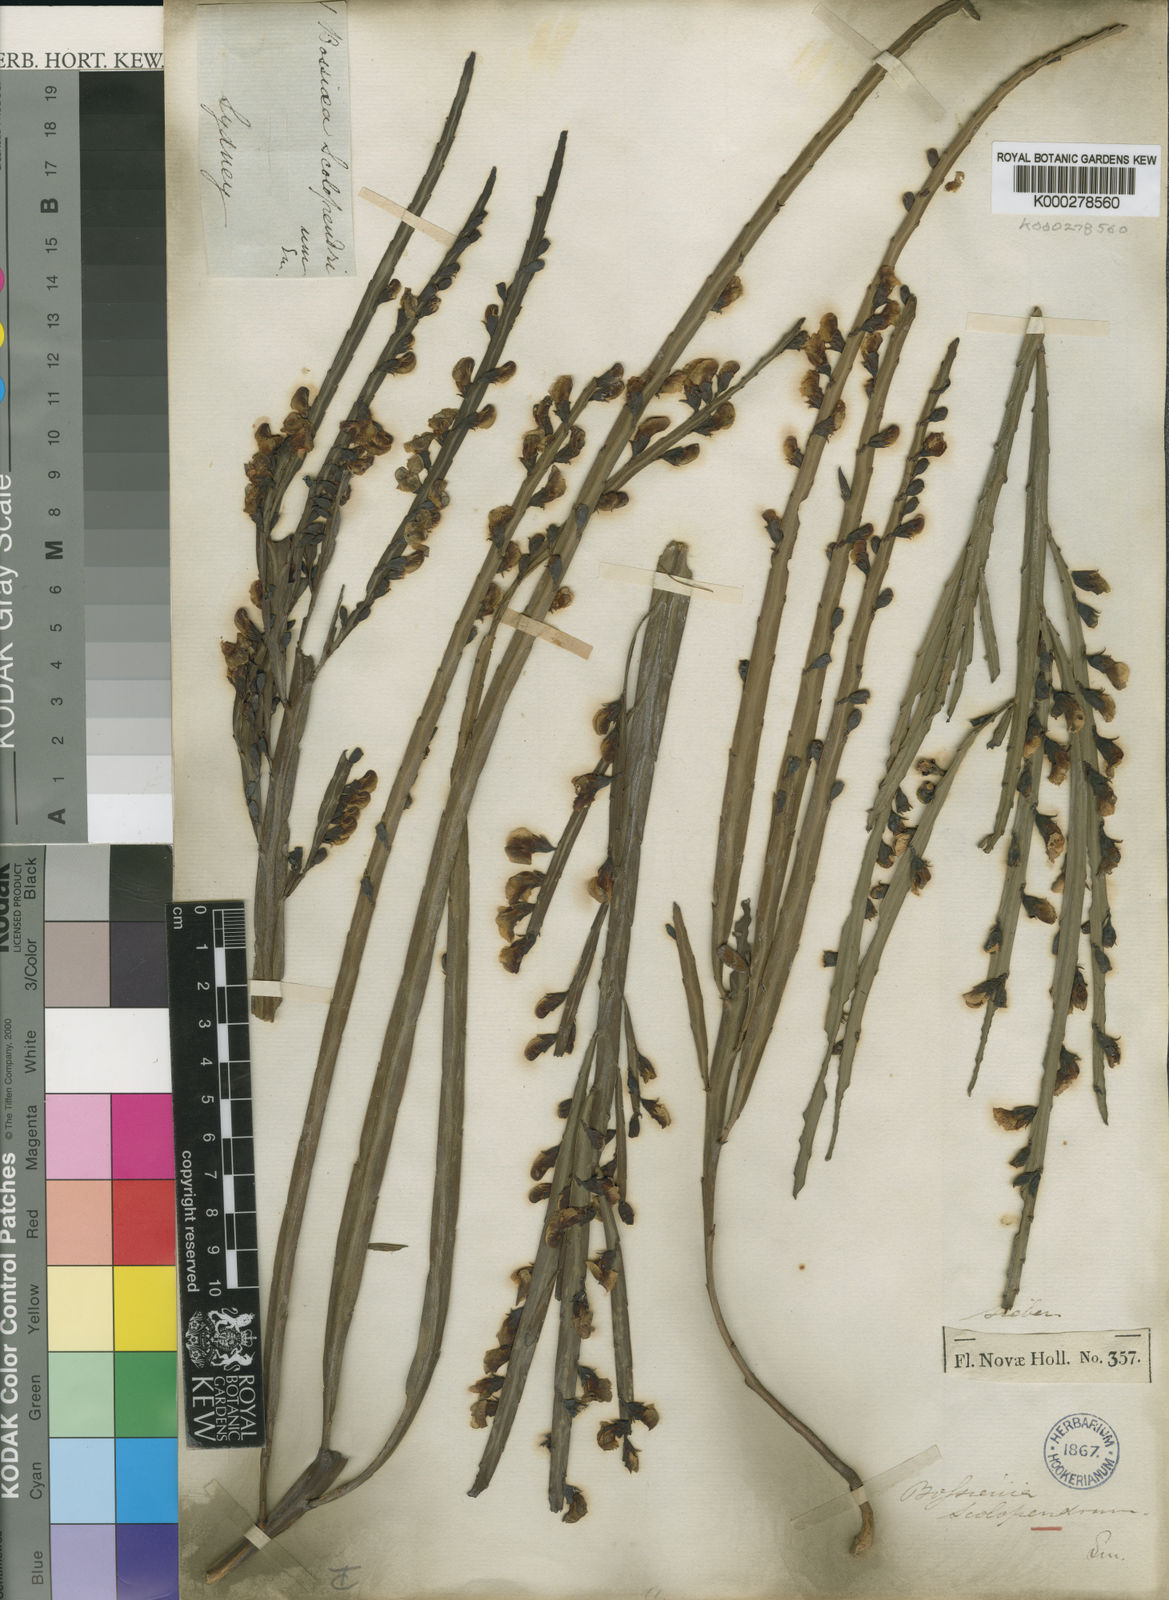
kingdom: Plantae
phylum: Tracheophyta
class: Magnoliopsida
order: Fabales
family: Fabaceae
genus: Bossiaea
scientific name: Bossiaea scolopendria
